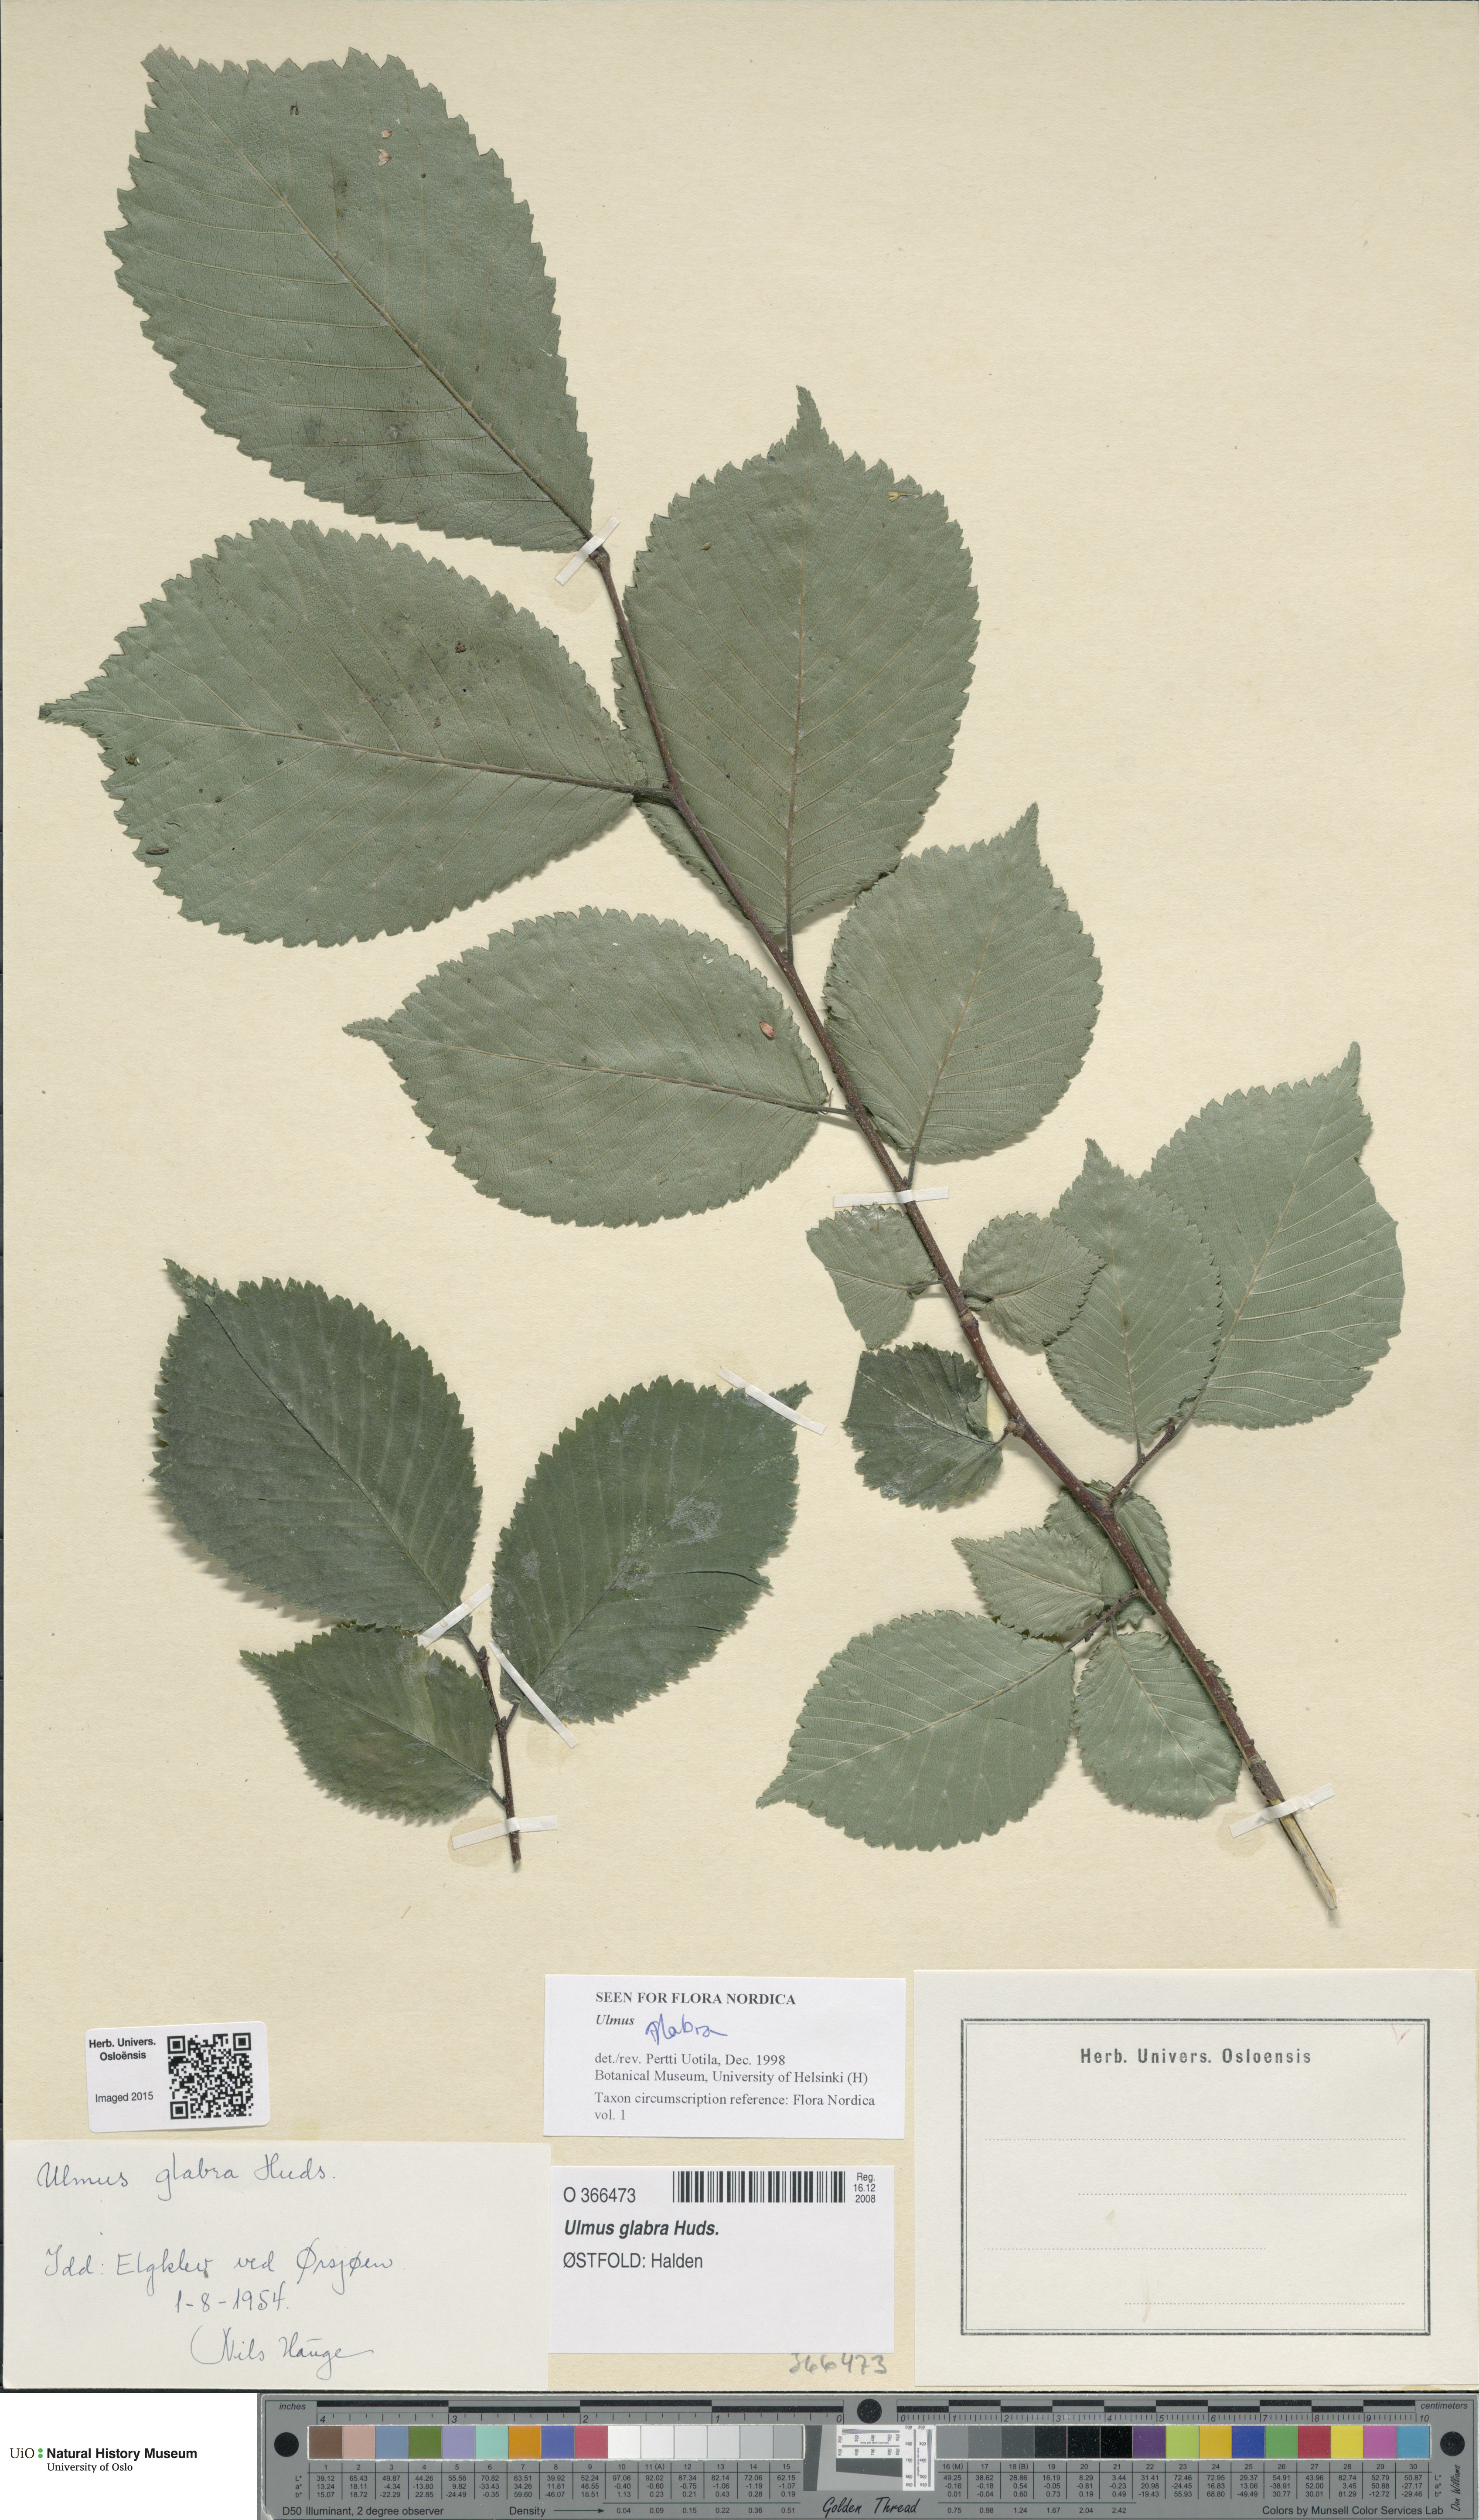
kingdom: Plantae
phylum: Tracheophyta
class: Magnoliopsida
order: Rosales
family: Ulmaceae
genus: Ulmus
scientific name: Ulmus glabra
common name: Wych elm
